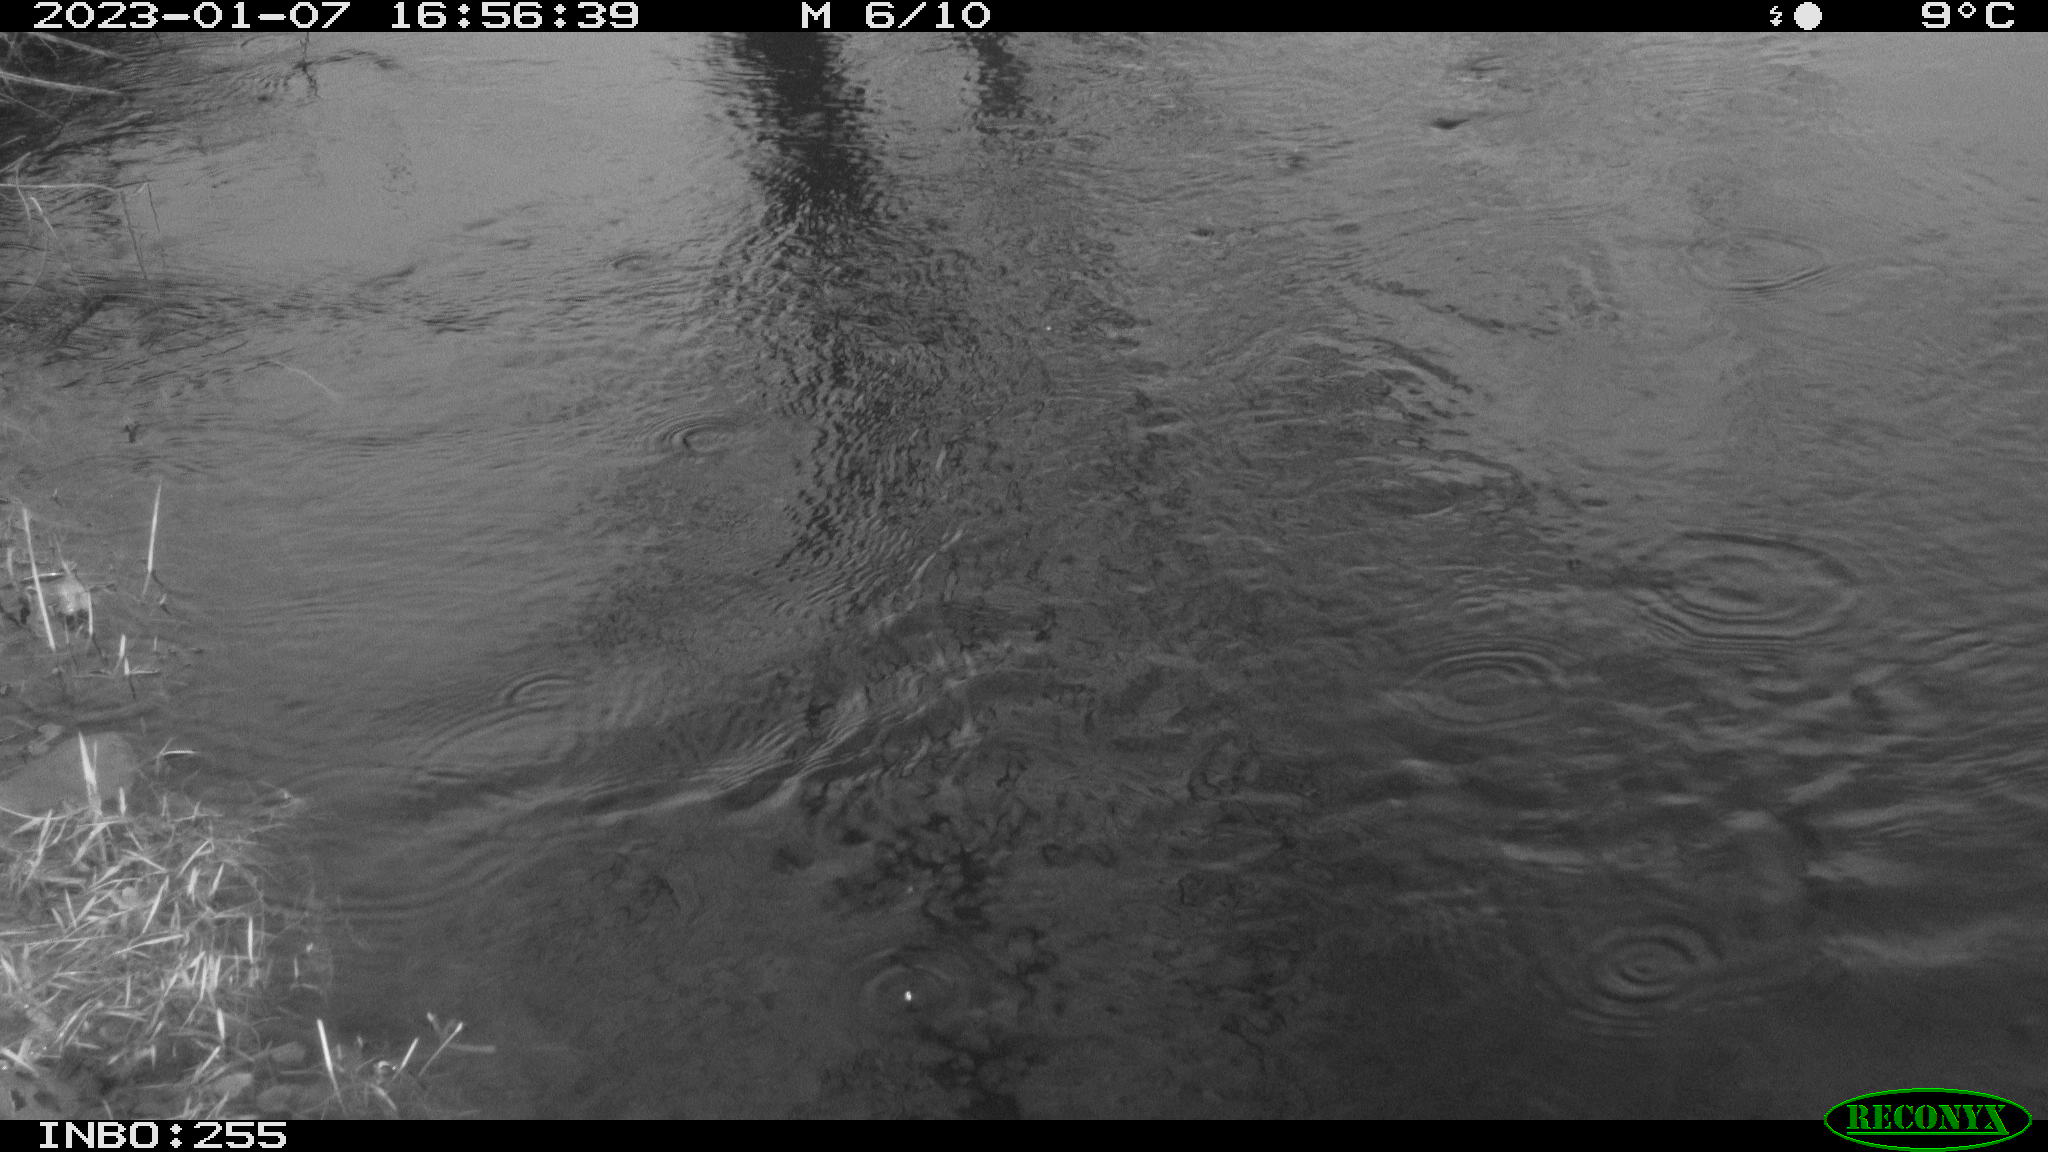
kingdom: Animalia
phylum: Chordata
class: Aves
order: Gruiformes
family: Rallidae
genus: Gallinula
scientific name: Gallinula chloropus
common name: Common moorhen
